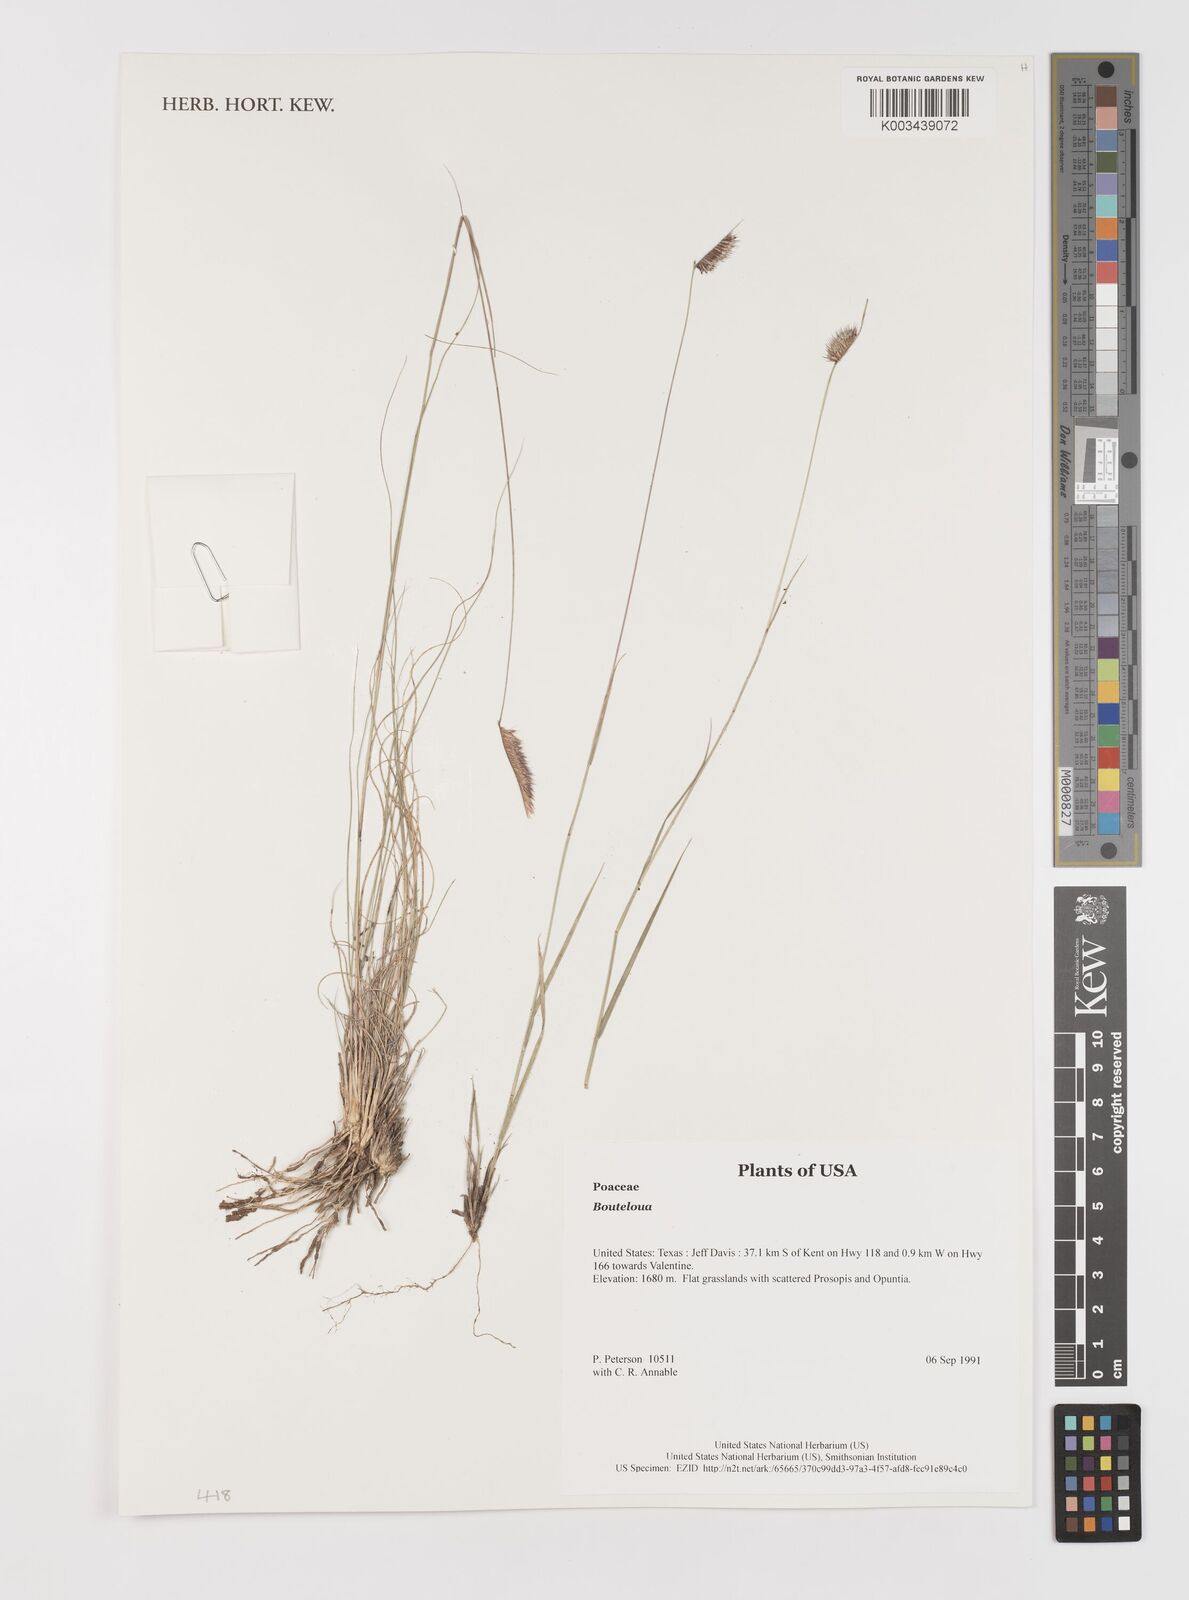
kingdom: Plantae
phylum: Tracheophyta
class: Liliopsida
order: Poales
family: Poaceae
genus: Bouteloua
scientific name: Bouteloua
